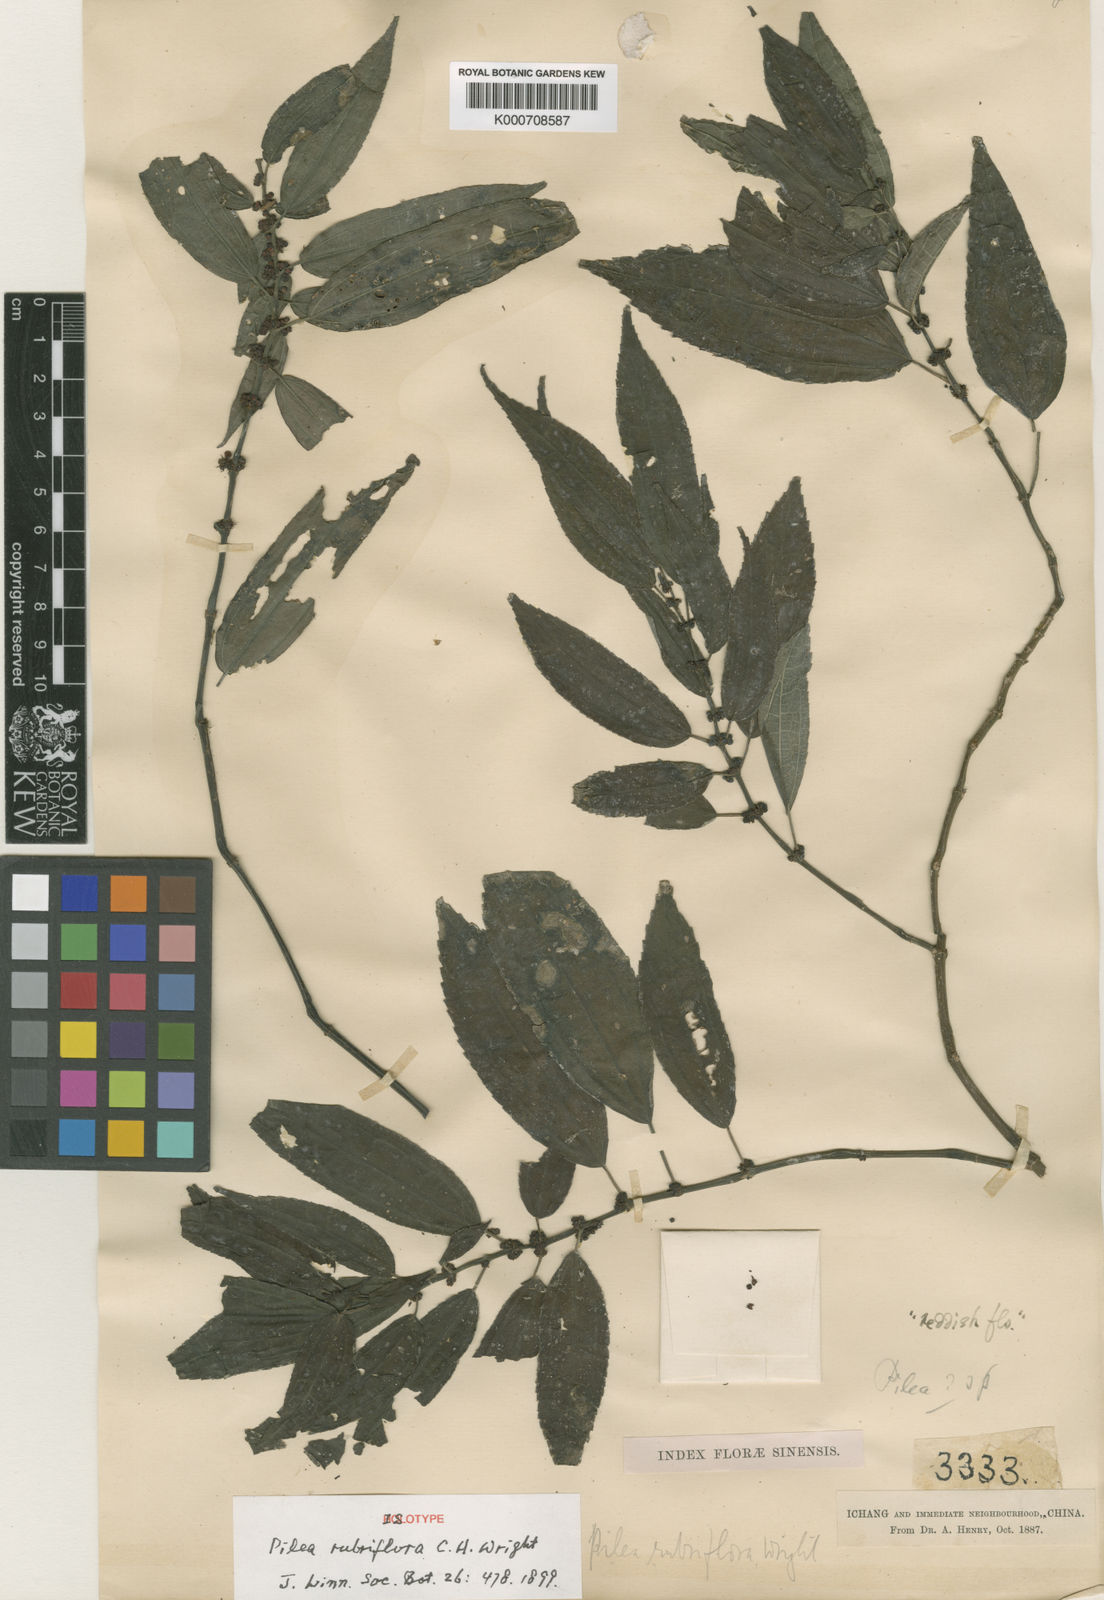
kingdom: Plantae
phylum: Tracheophyta
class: Magnoliopsida
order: Rosales
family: Urticaceae
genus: Pilea
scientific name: Pilea rubriflora
